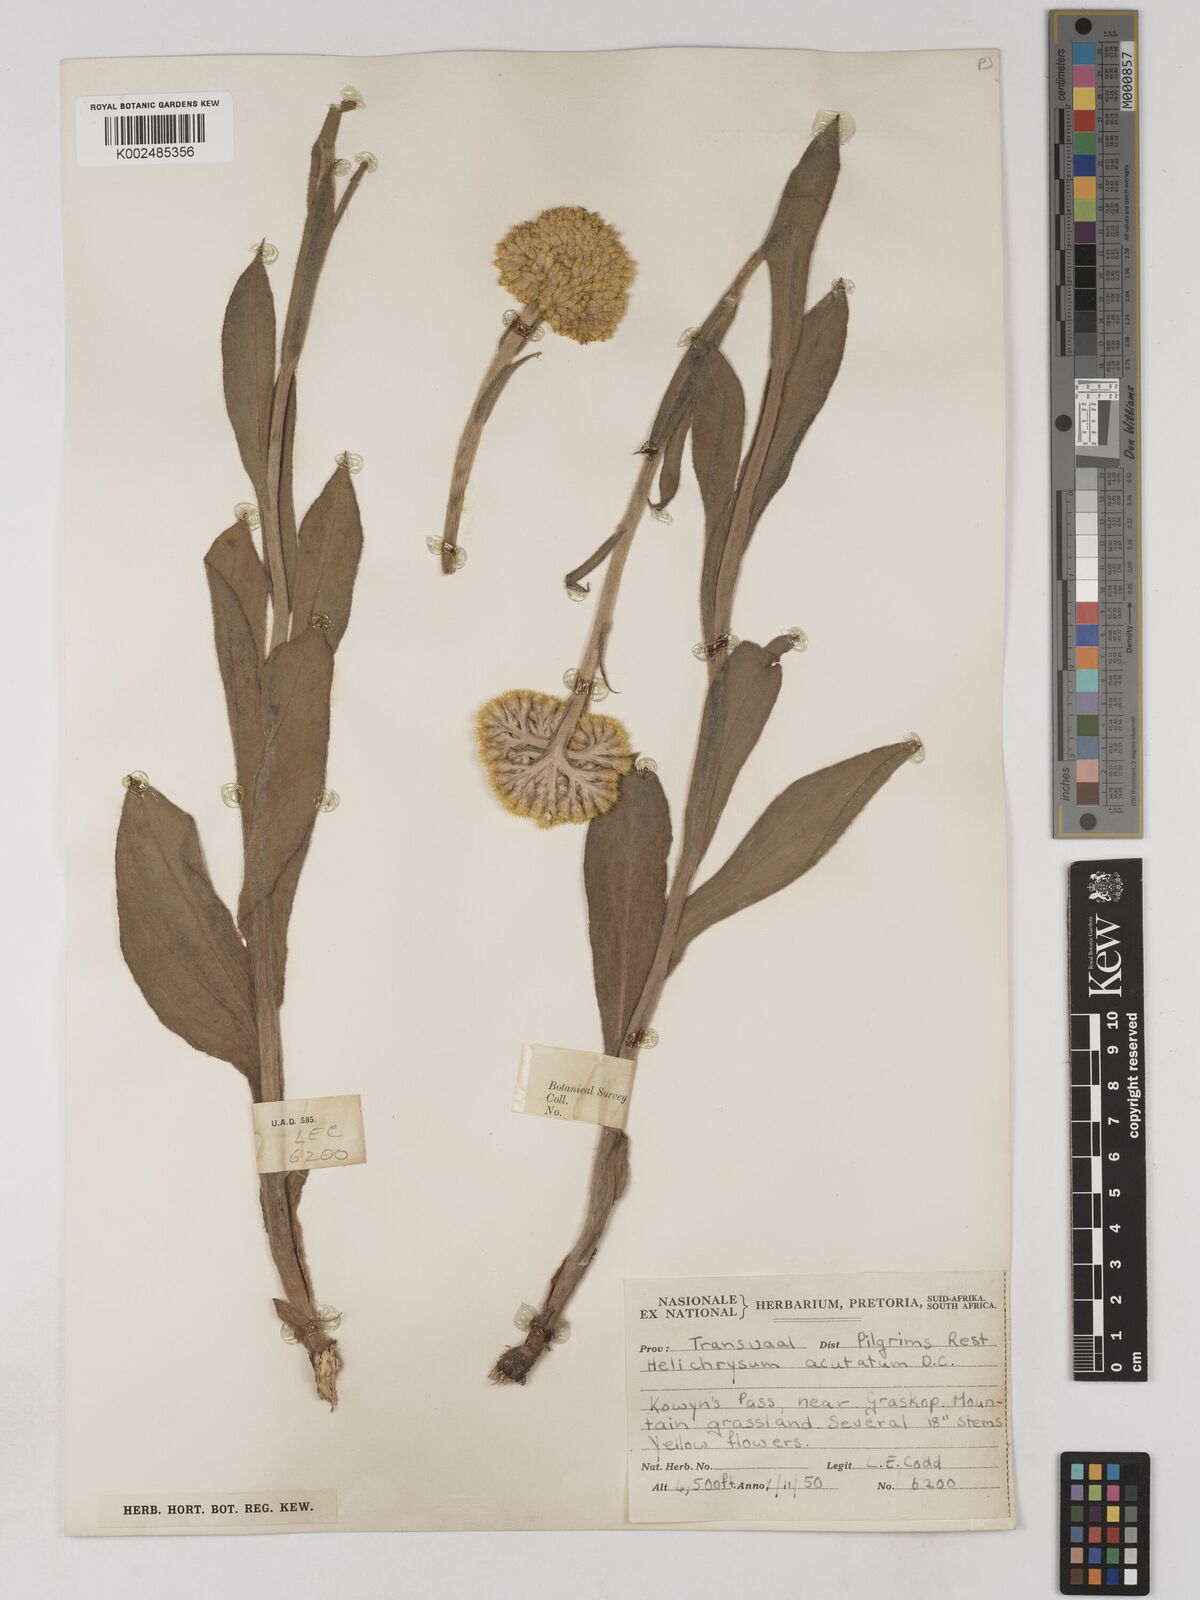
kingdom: Plantae
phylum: Tracheophyta
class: Magnoliopsida
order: Asterales
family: Asteraceae
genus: Helichrysum
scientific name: Helichrysum acutatum
